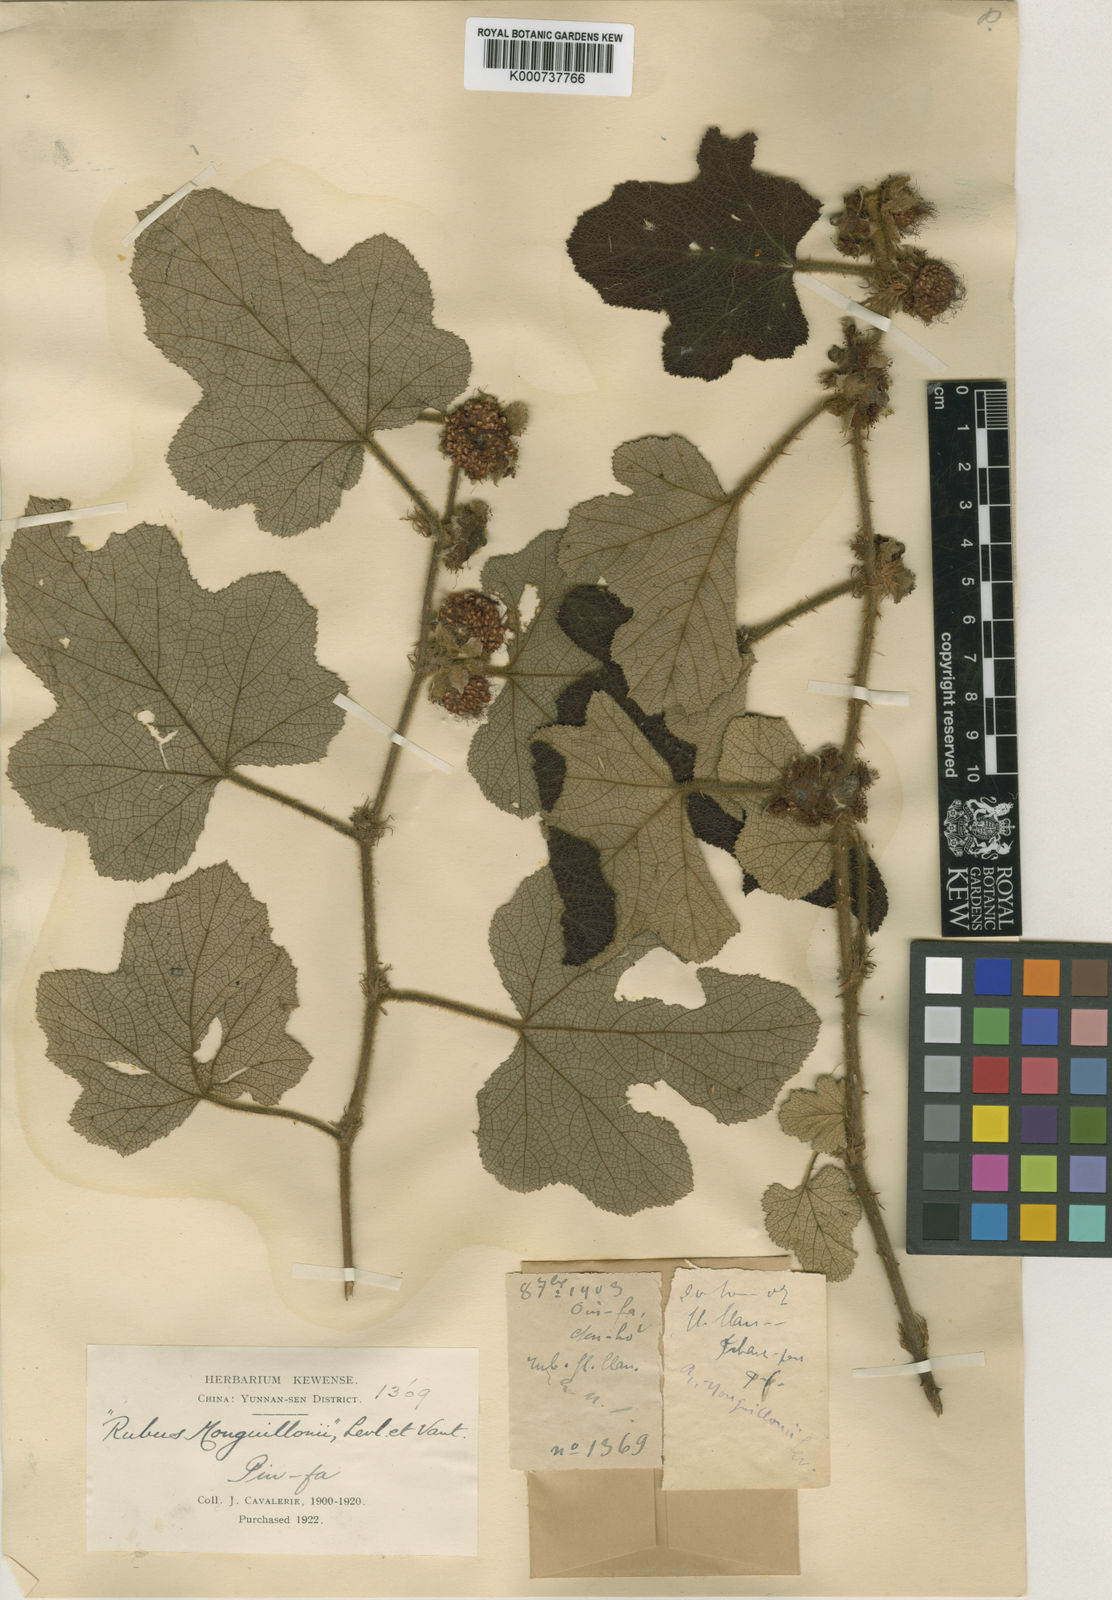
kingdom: Plantae
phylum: Tracheophyta
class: Magnoliopsida
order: Rosales
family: Rosaceae
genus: Rubus
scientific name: Rubus
